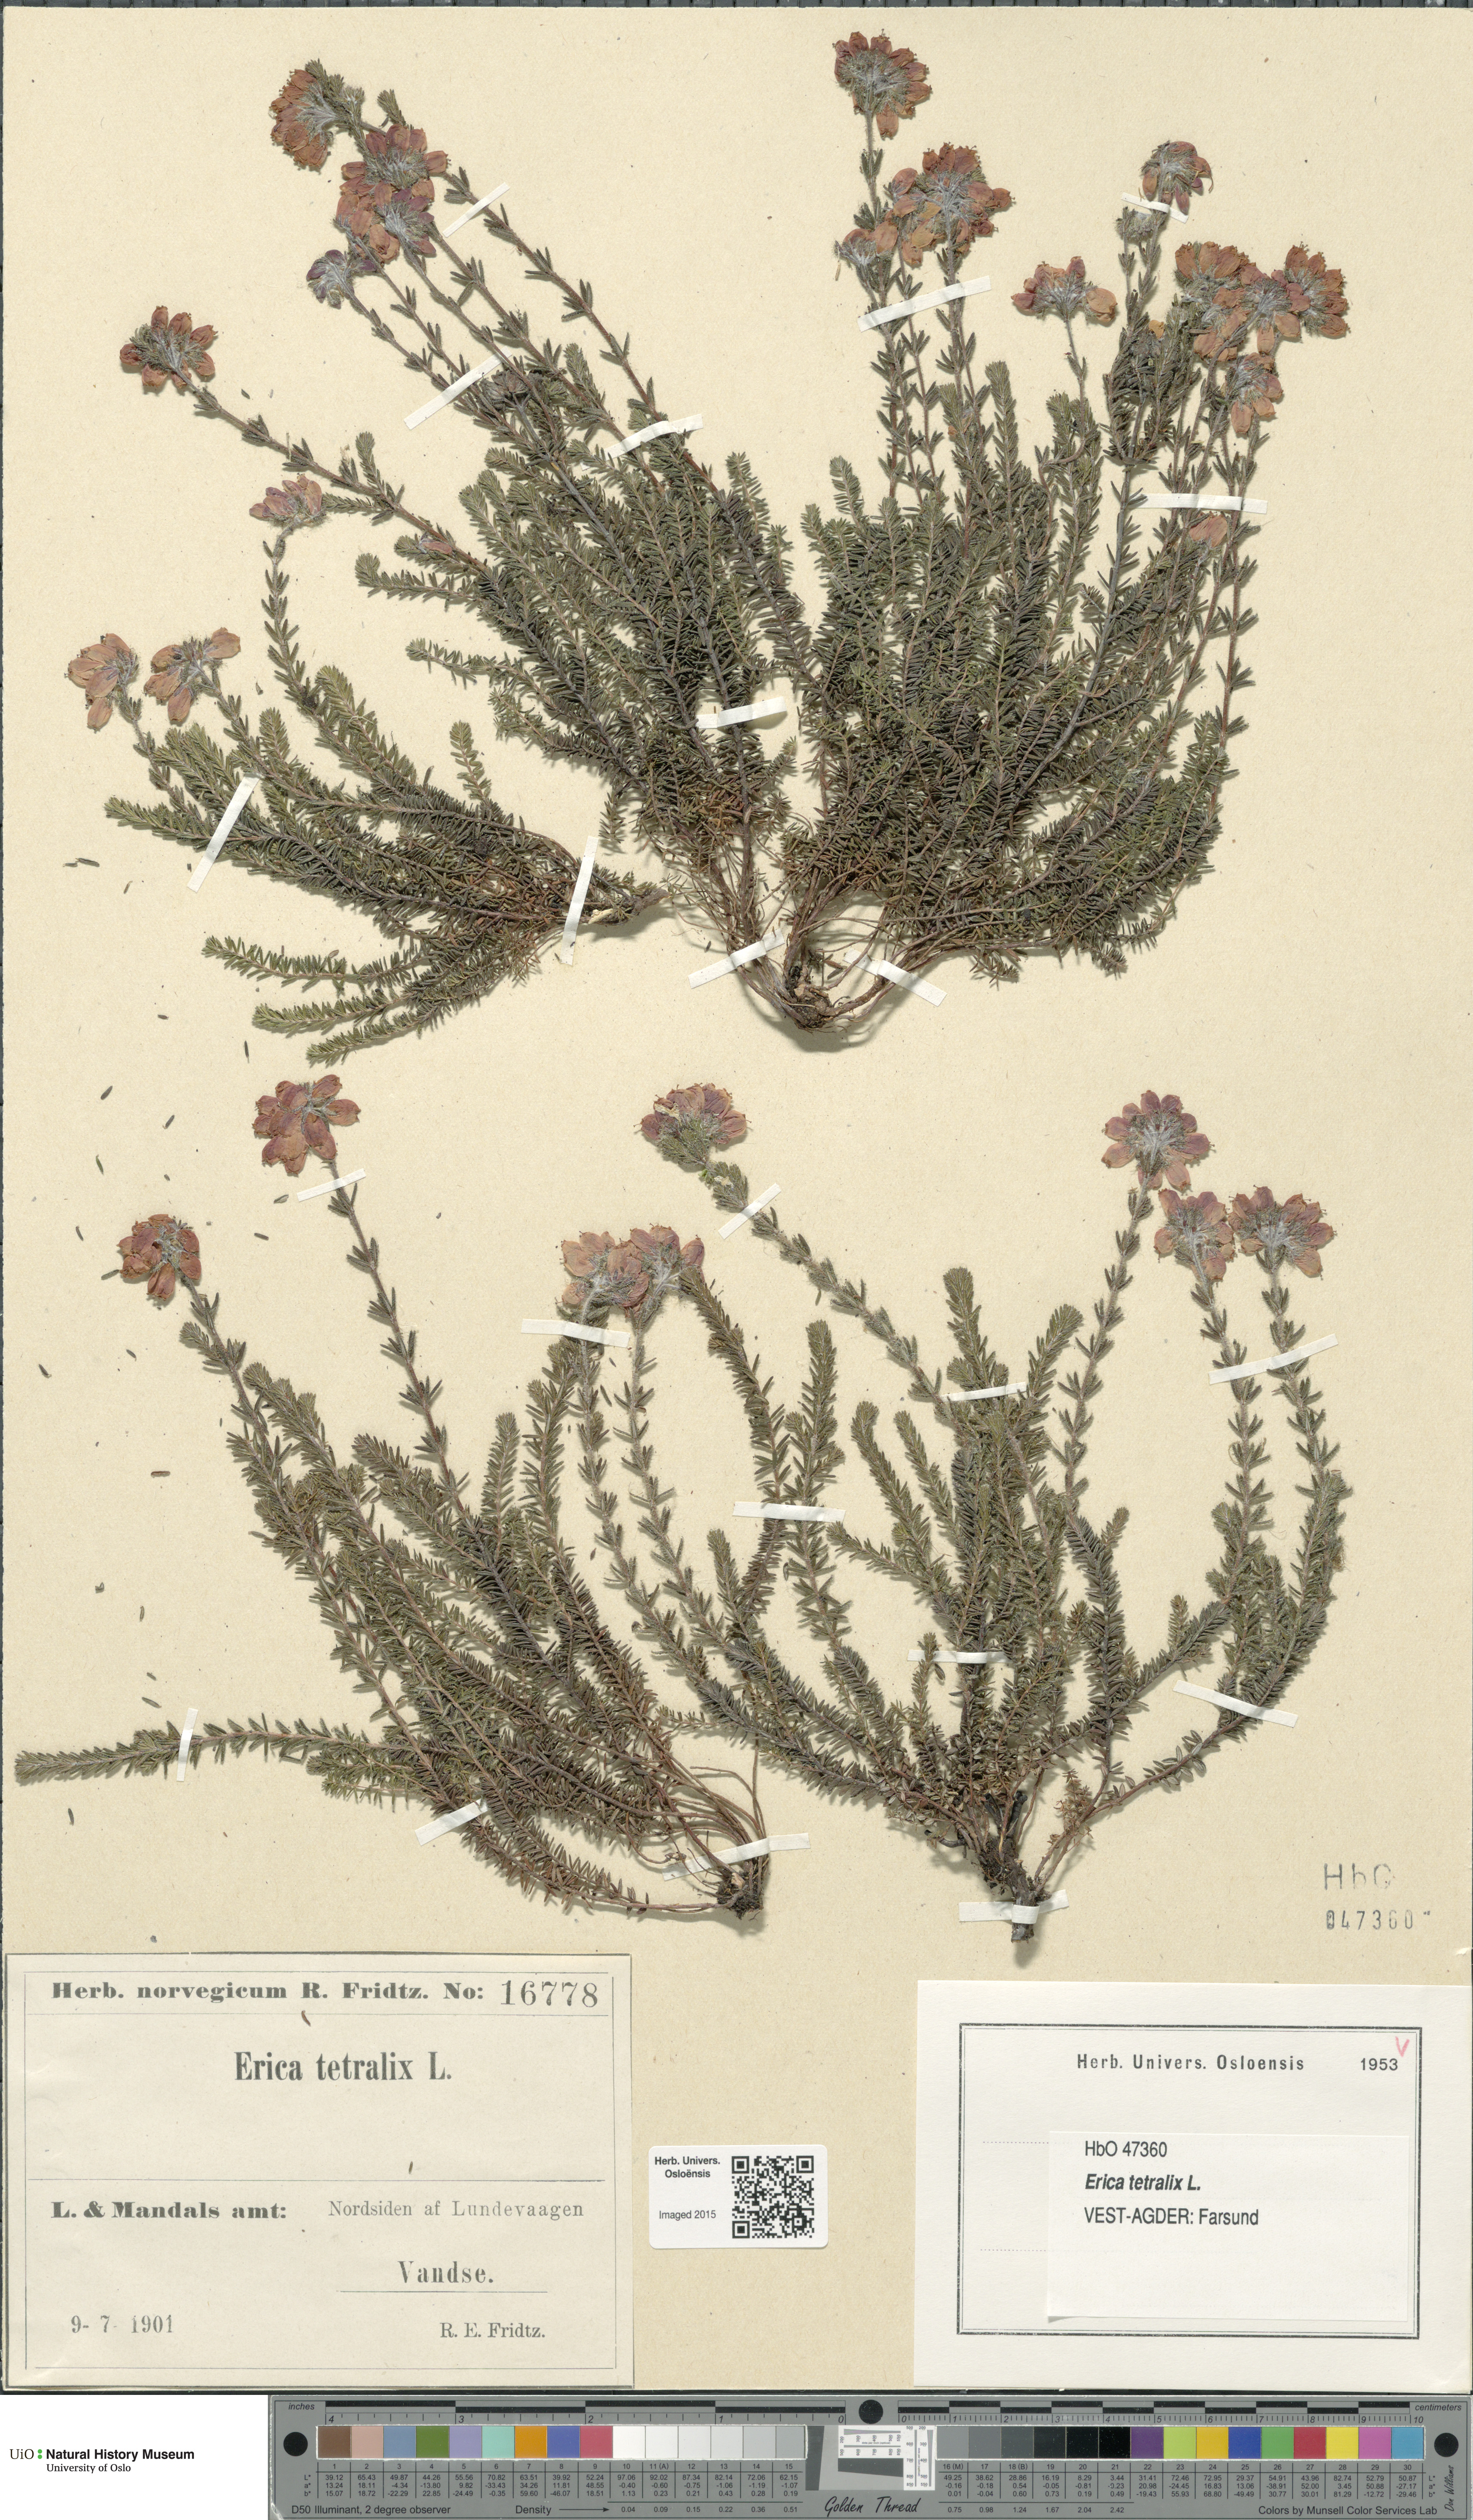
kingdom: Plantae
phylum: Tracheophyta
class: Magnoliopsida
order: Ericales
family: Ericaceae
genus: Erica
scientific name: Erica tetralix
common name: Cross-leaved heath
